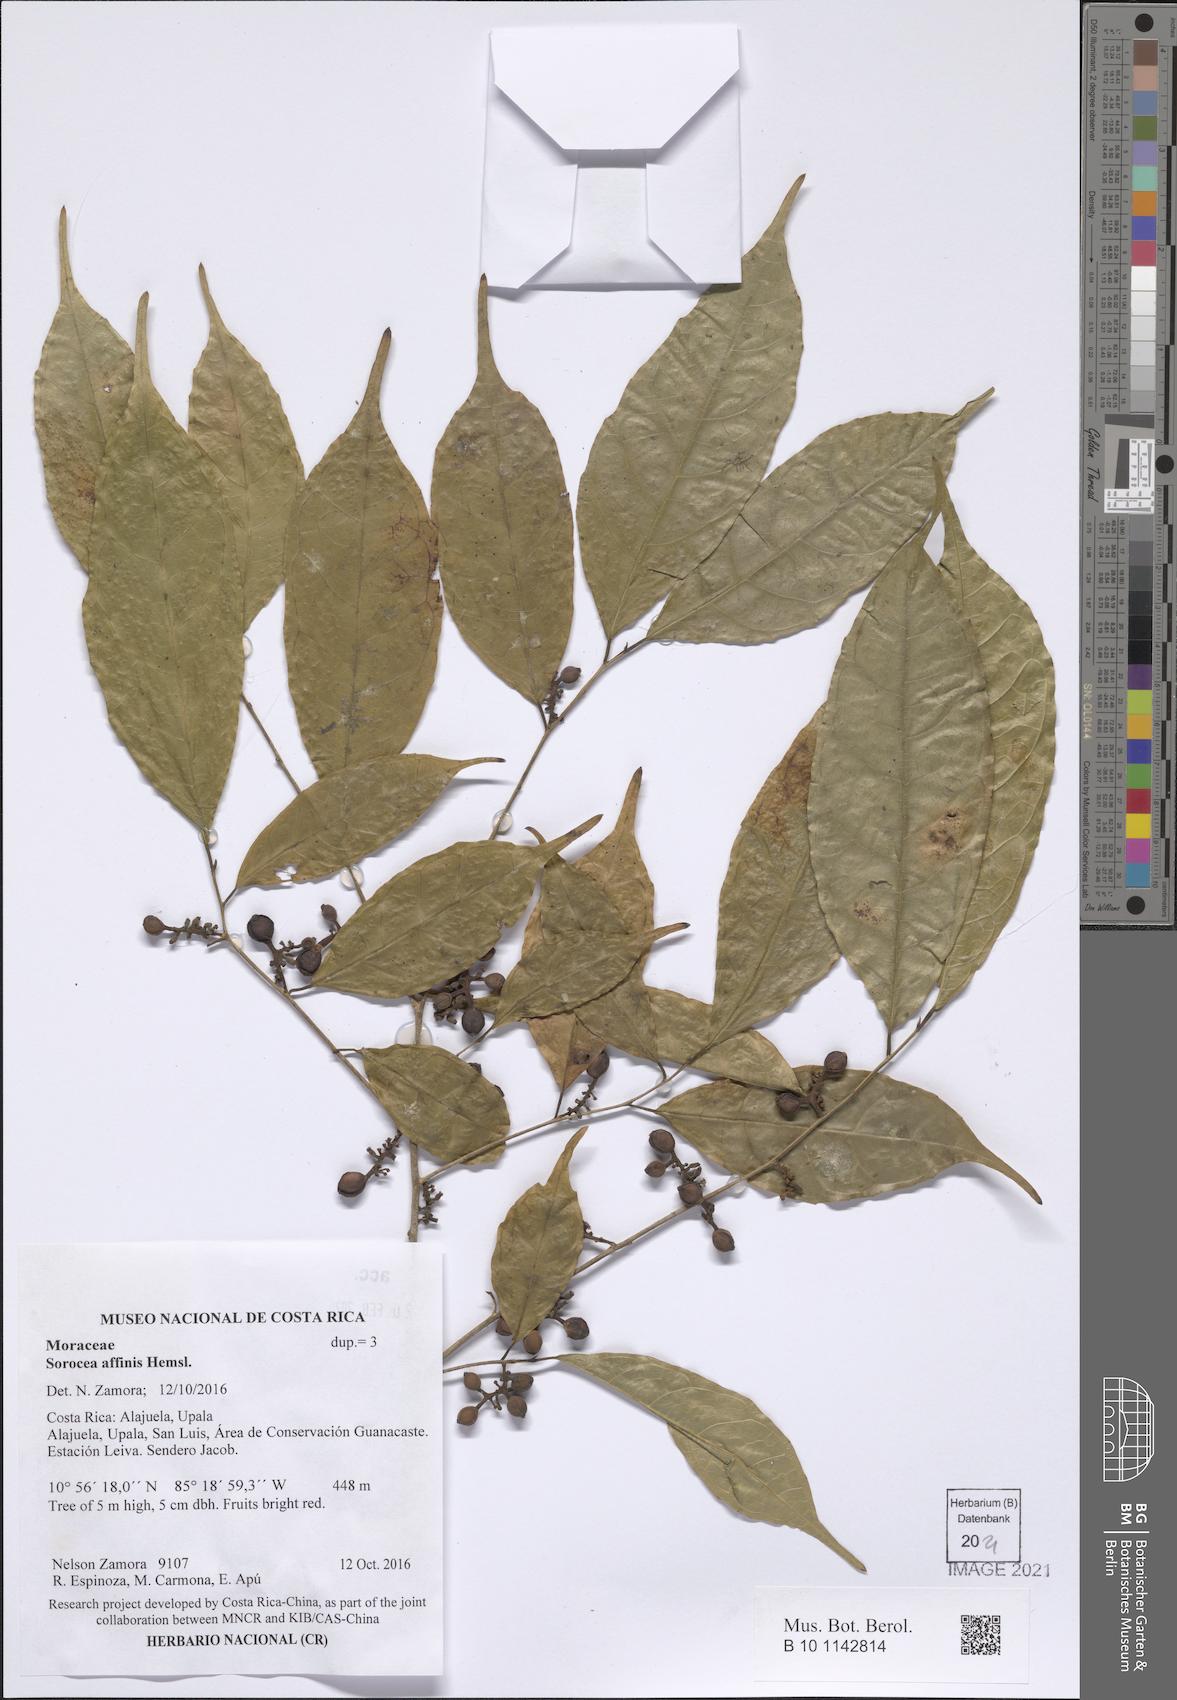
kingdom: Plantae
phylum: Tracheophyta
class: Magnoliopsida
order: Rosales
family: Moraceae
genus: Sorocea
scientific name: Sorocea affinis
